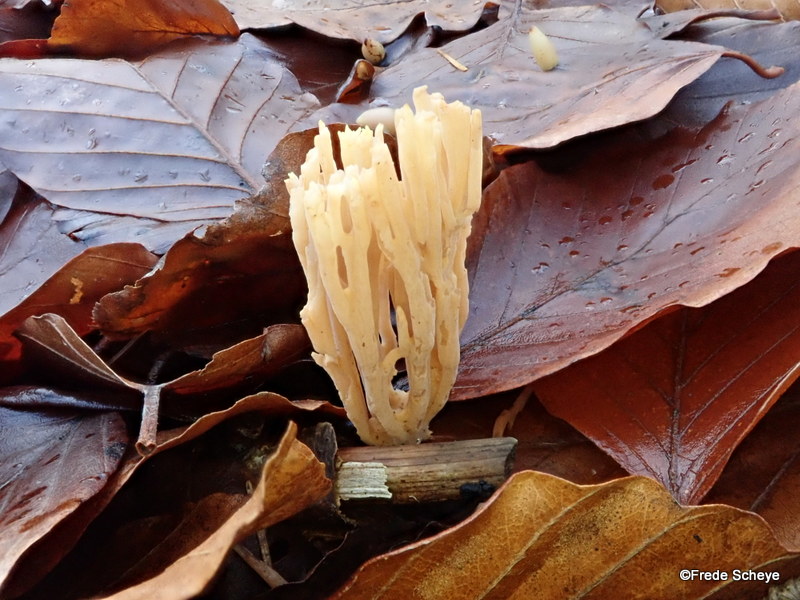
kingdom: Fungi
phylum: Basidiomycota
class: Agaricomycetes
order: Gomphales
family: Gomphaceae
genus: Ramaria
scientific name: Ramaria stricta
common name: rank koralsvamp
